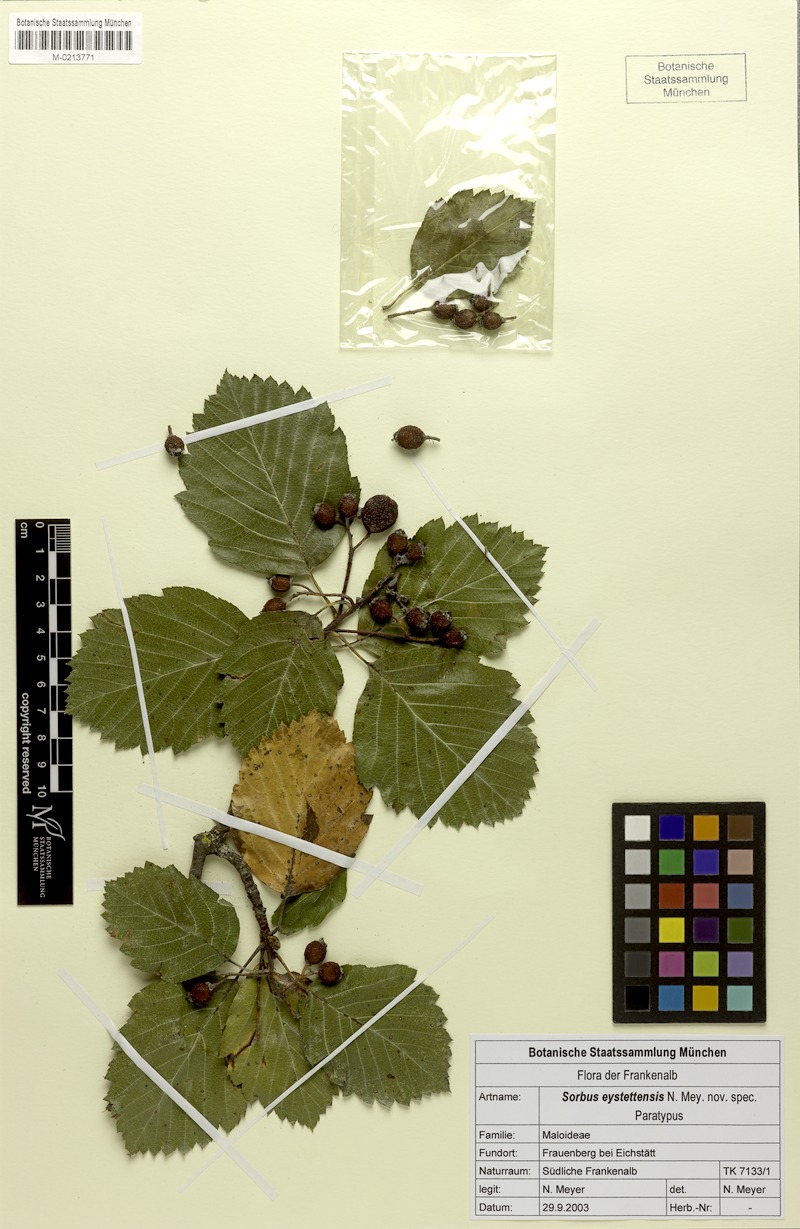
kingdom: Plantae
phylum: Tracheophyta
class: Magnoliopsida
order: Rosales
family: Rosaceae
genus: Karpatiosorbus
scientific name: Karpatiosorbus eystettensis
